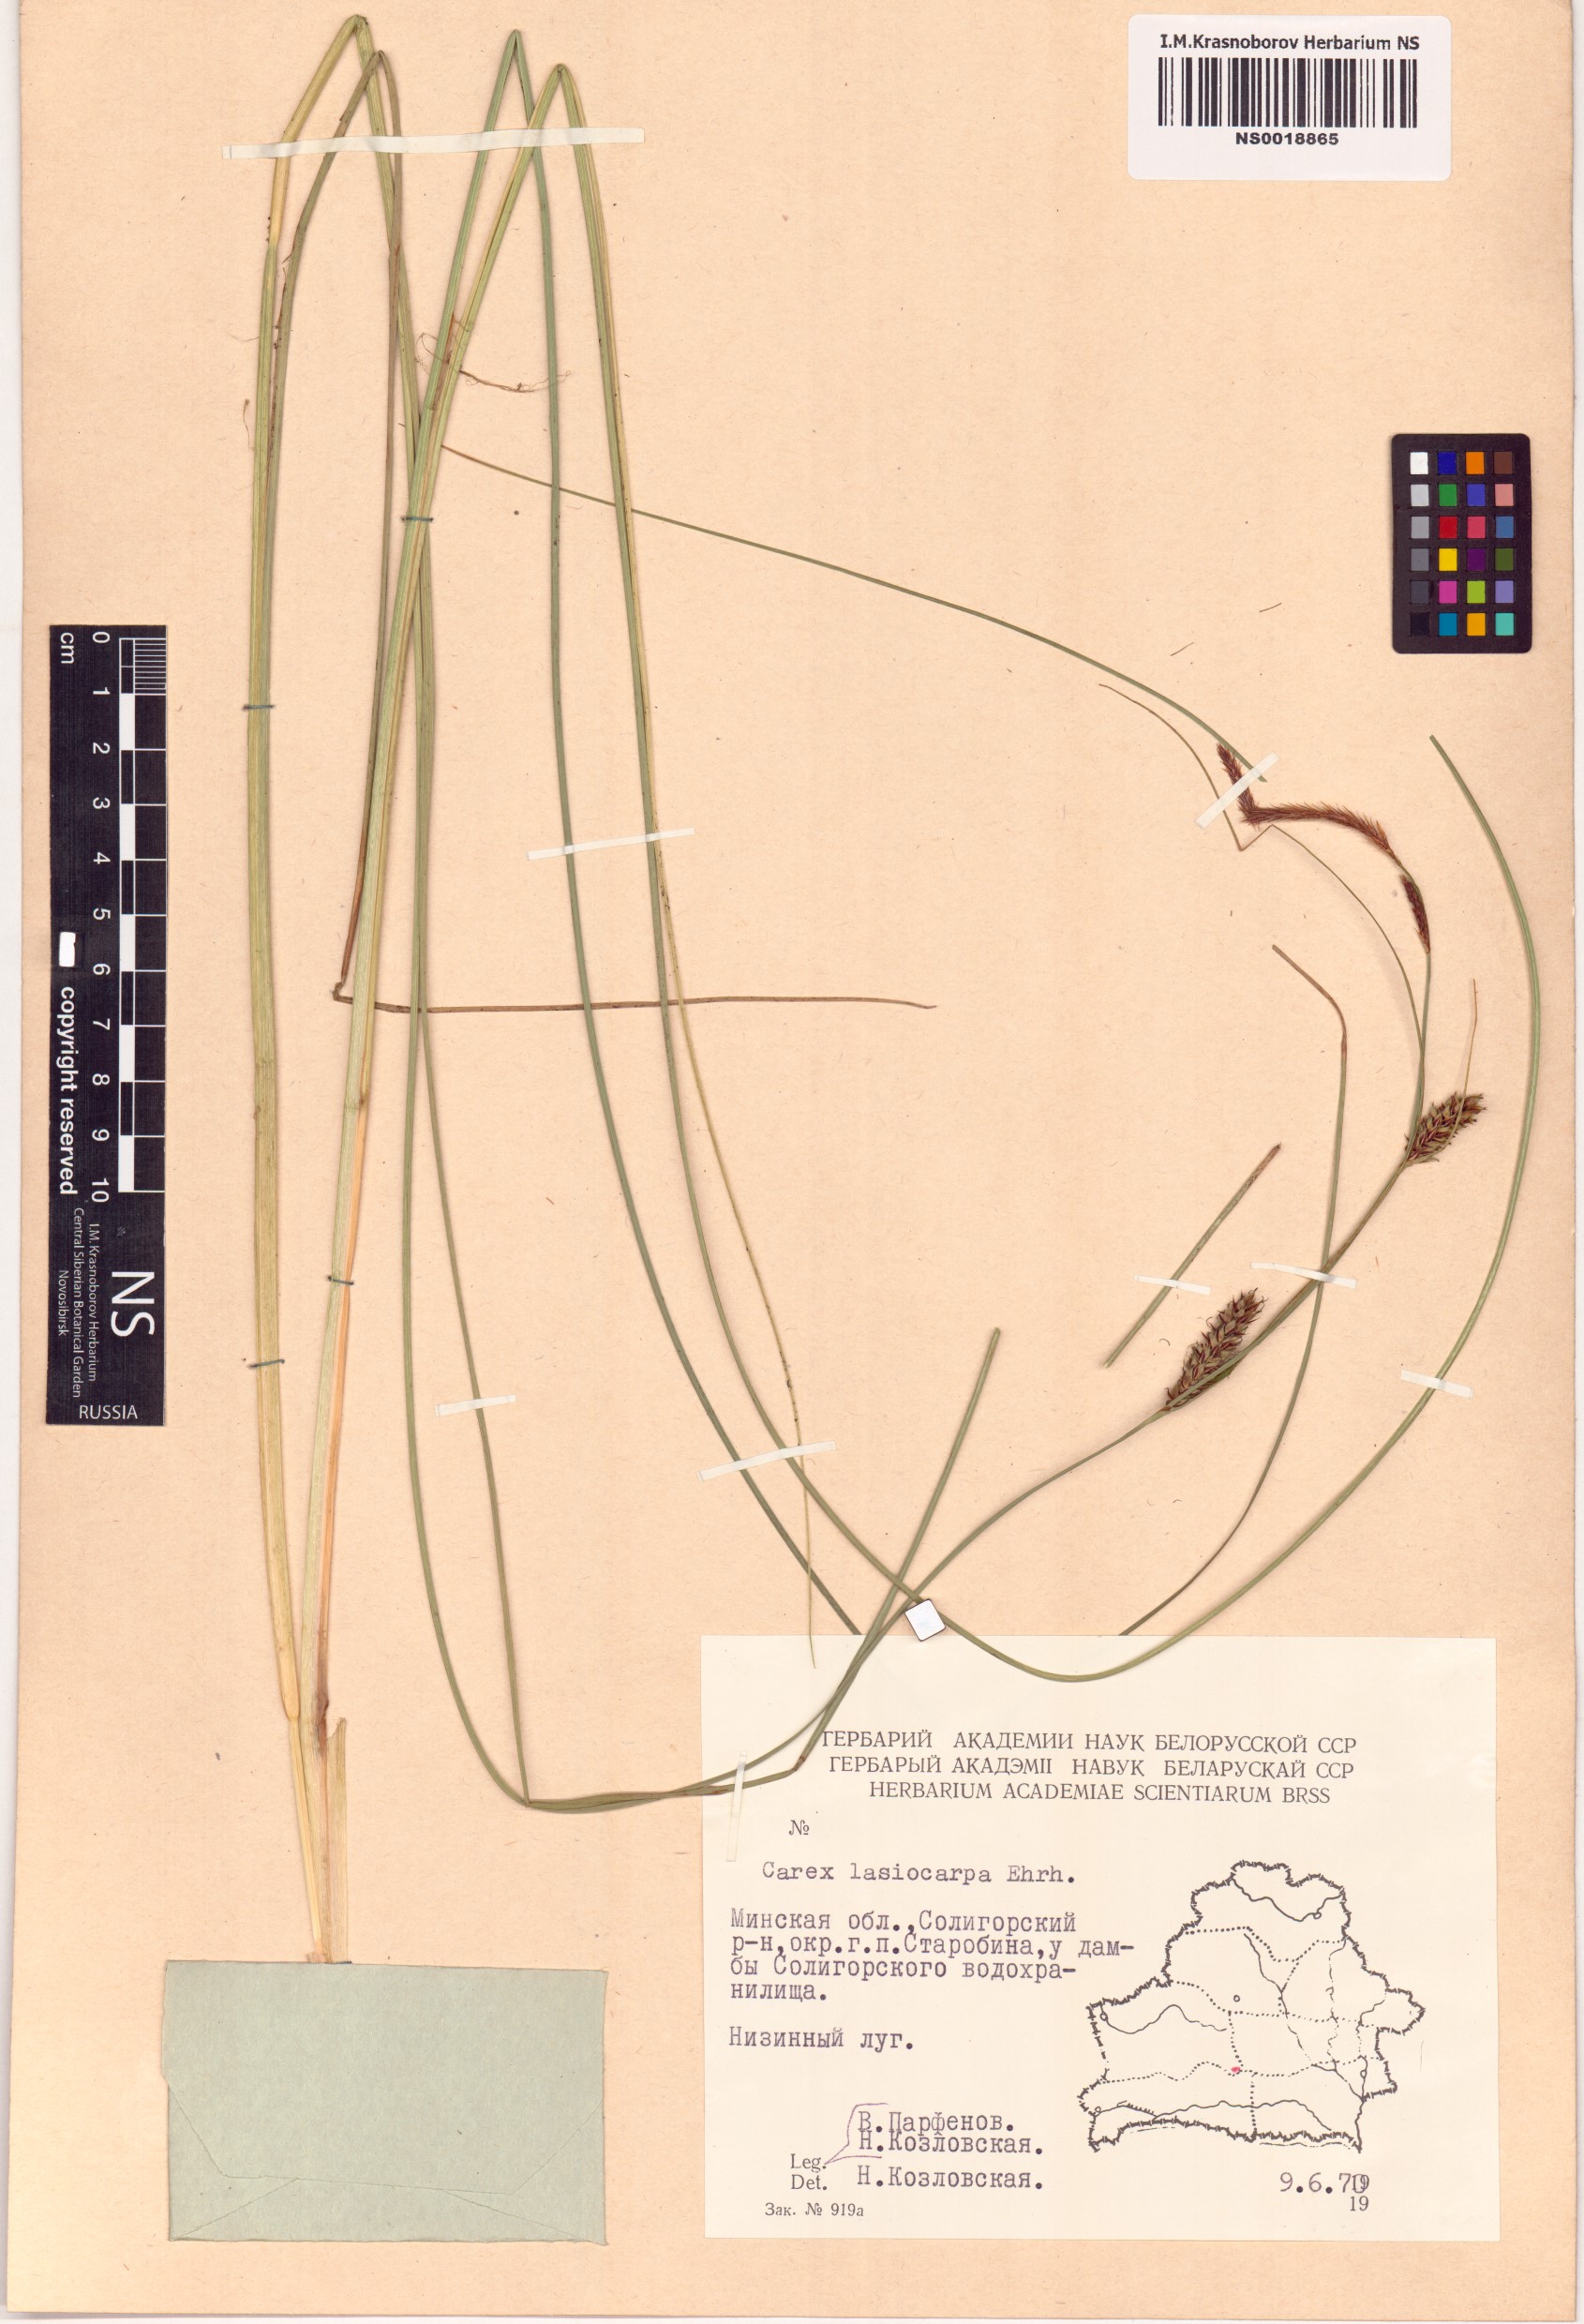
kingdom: Plantae
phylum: Tracheophyta
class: Liliopsida
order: Poales
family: Cyperaceae
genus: Carex
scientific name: Carex lasiocarpa
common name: Slender sedge
